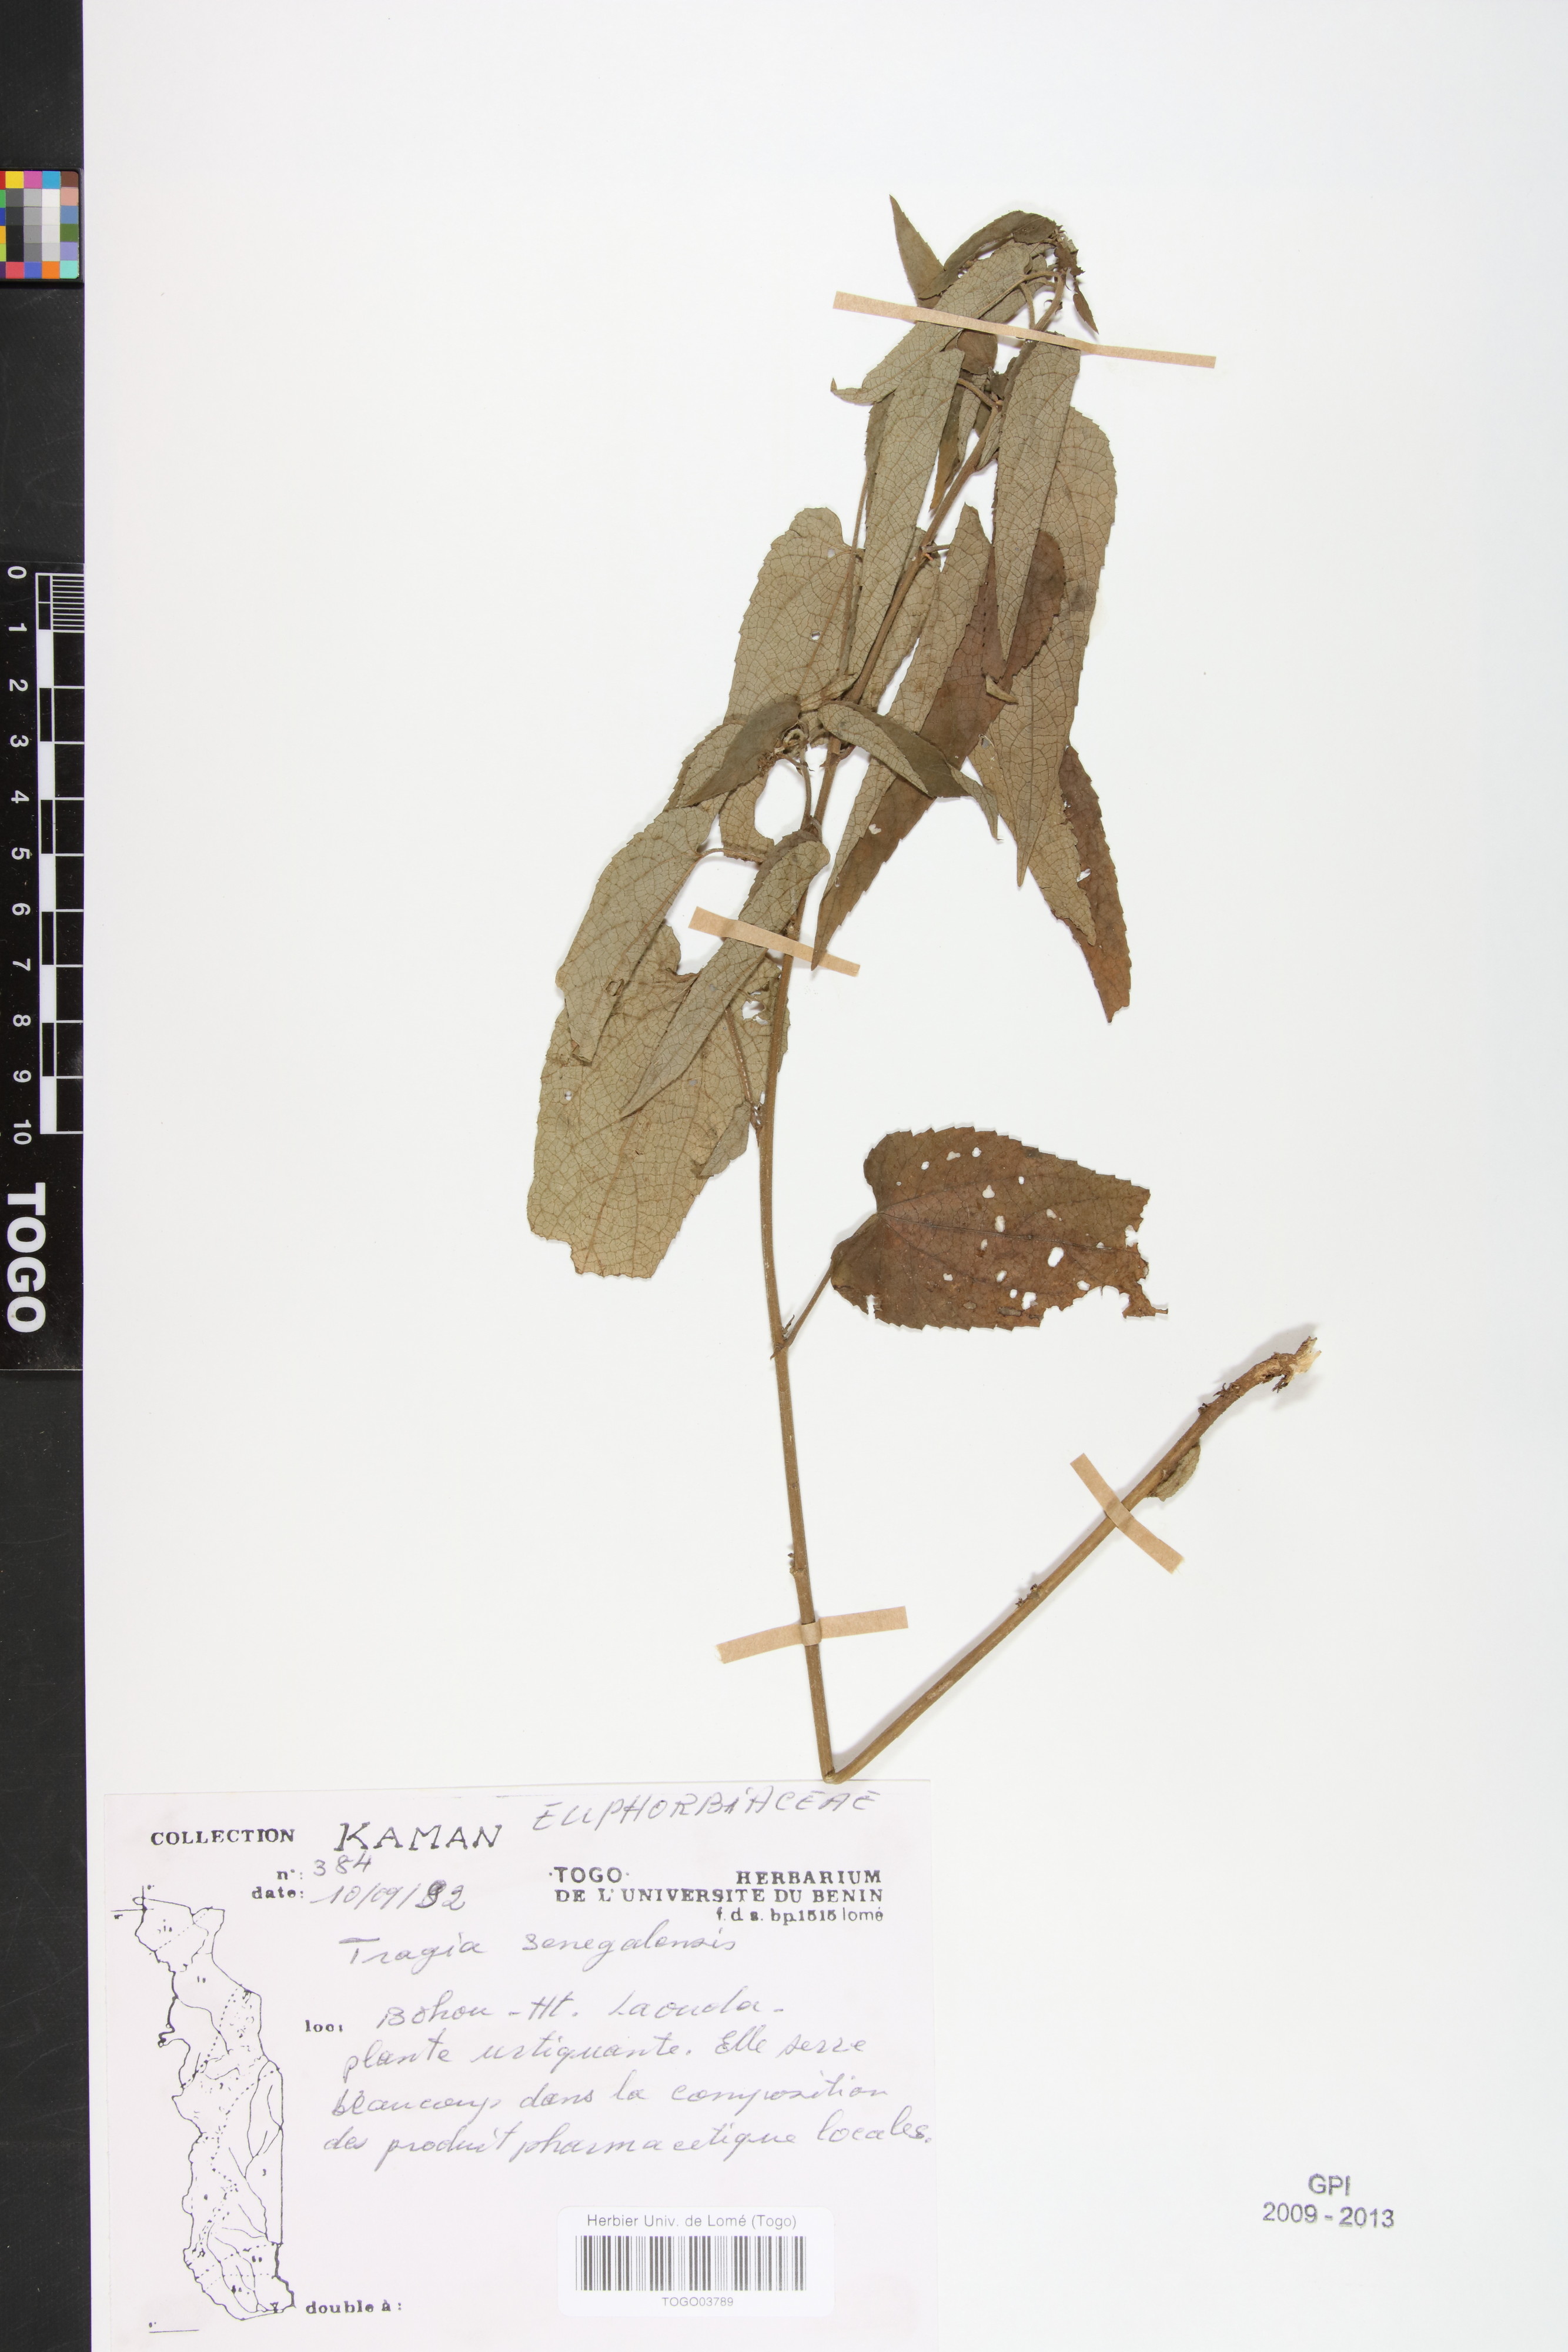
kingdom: Plantae
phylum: Tracheophyta
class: Magnoliopsida
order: Malpighiales
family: Euphorbiaceae
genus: Tragia
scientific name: Tragia senegalensis
